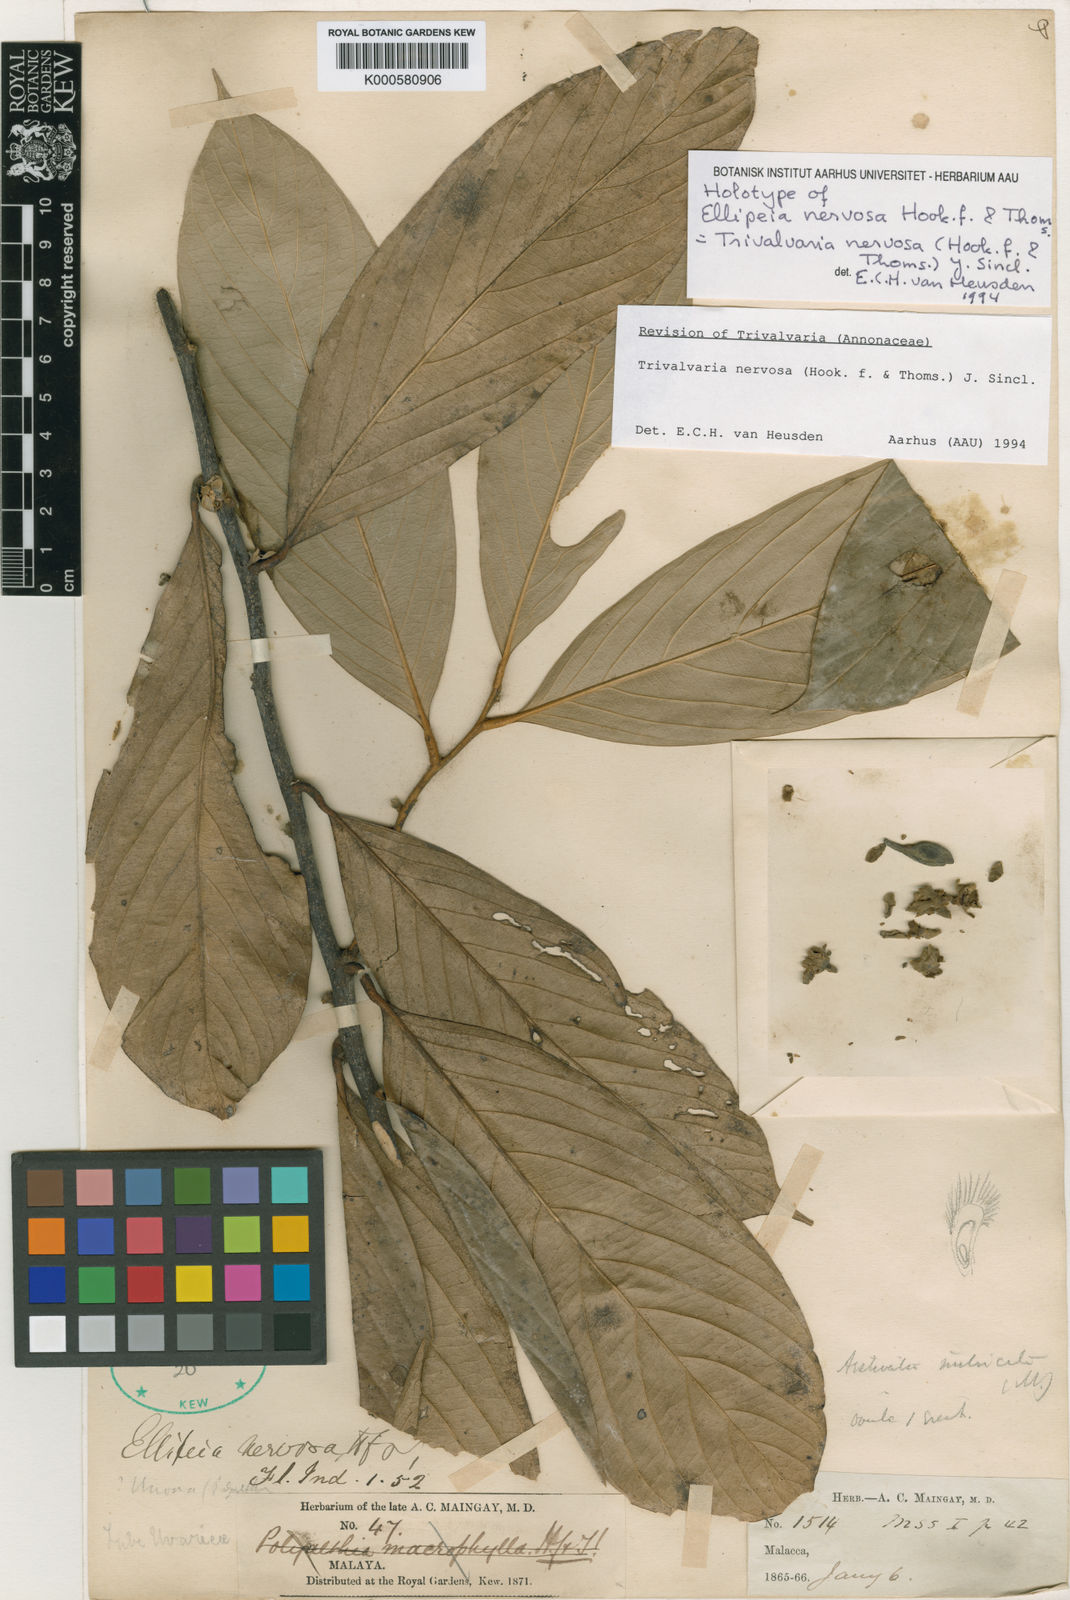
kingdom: Plantae
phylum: Tracheophyta
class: Magnoliopsida
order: Magnoliales
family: Annonaceae
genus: Trivalvaria
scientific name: Trivalvaria nervosa
